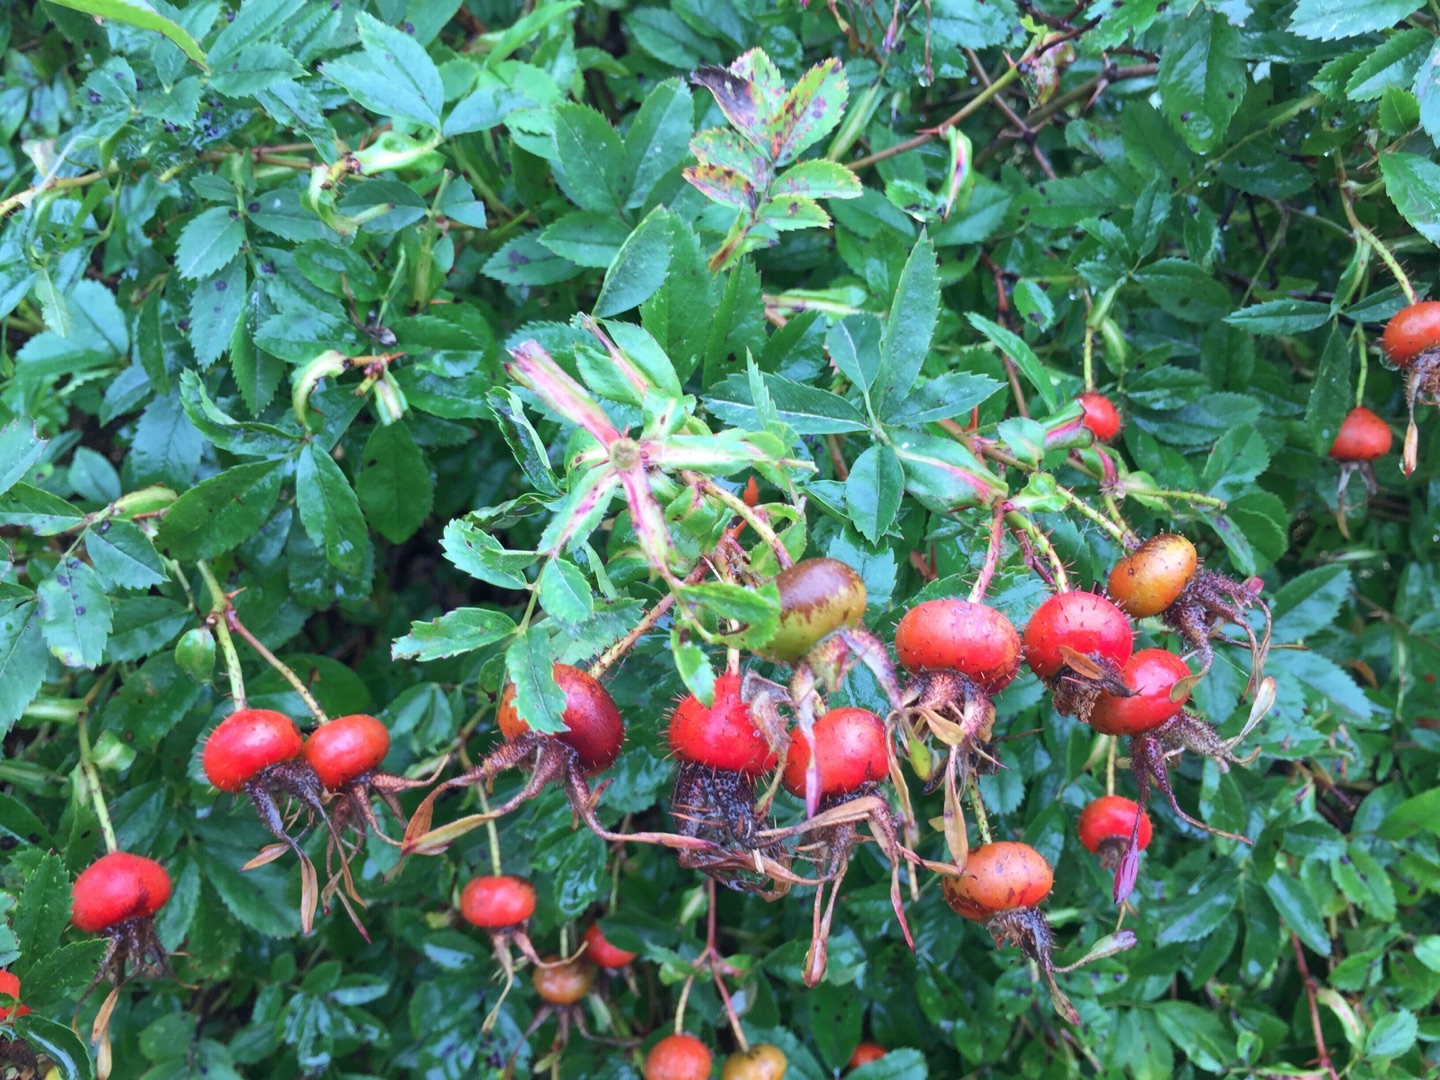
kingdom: Plantae
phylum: Tracheophyta
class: Magnoliopsida
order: Rosales
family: Rosaceae
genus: Rosa
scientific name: Rosa carolina
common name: Glansbladet rose
